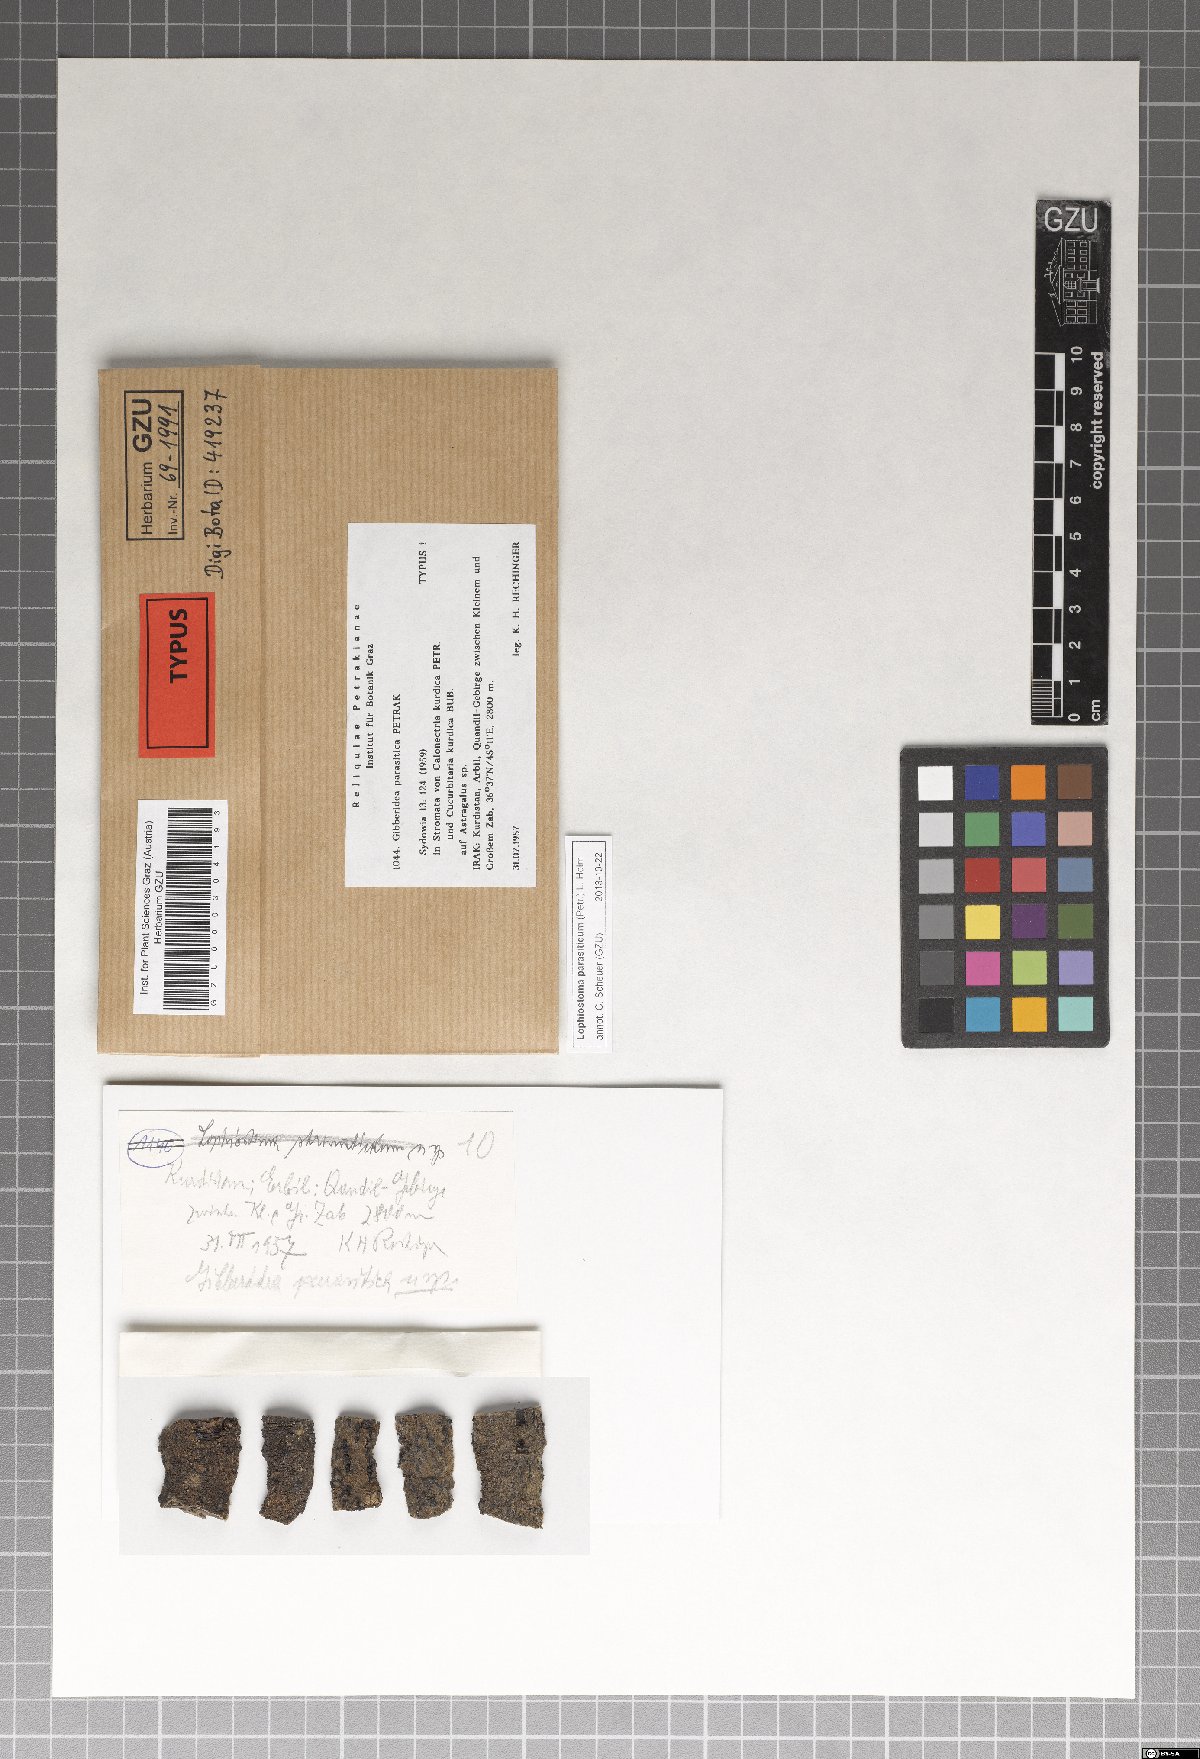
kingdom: Fungi
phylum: Ascomycota
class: Dothideomycetes
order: Pleosporales
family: Lophiostomataceae
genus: Lophiostoma
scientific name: Lophiostoma parasiticum
